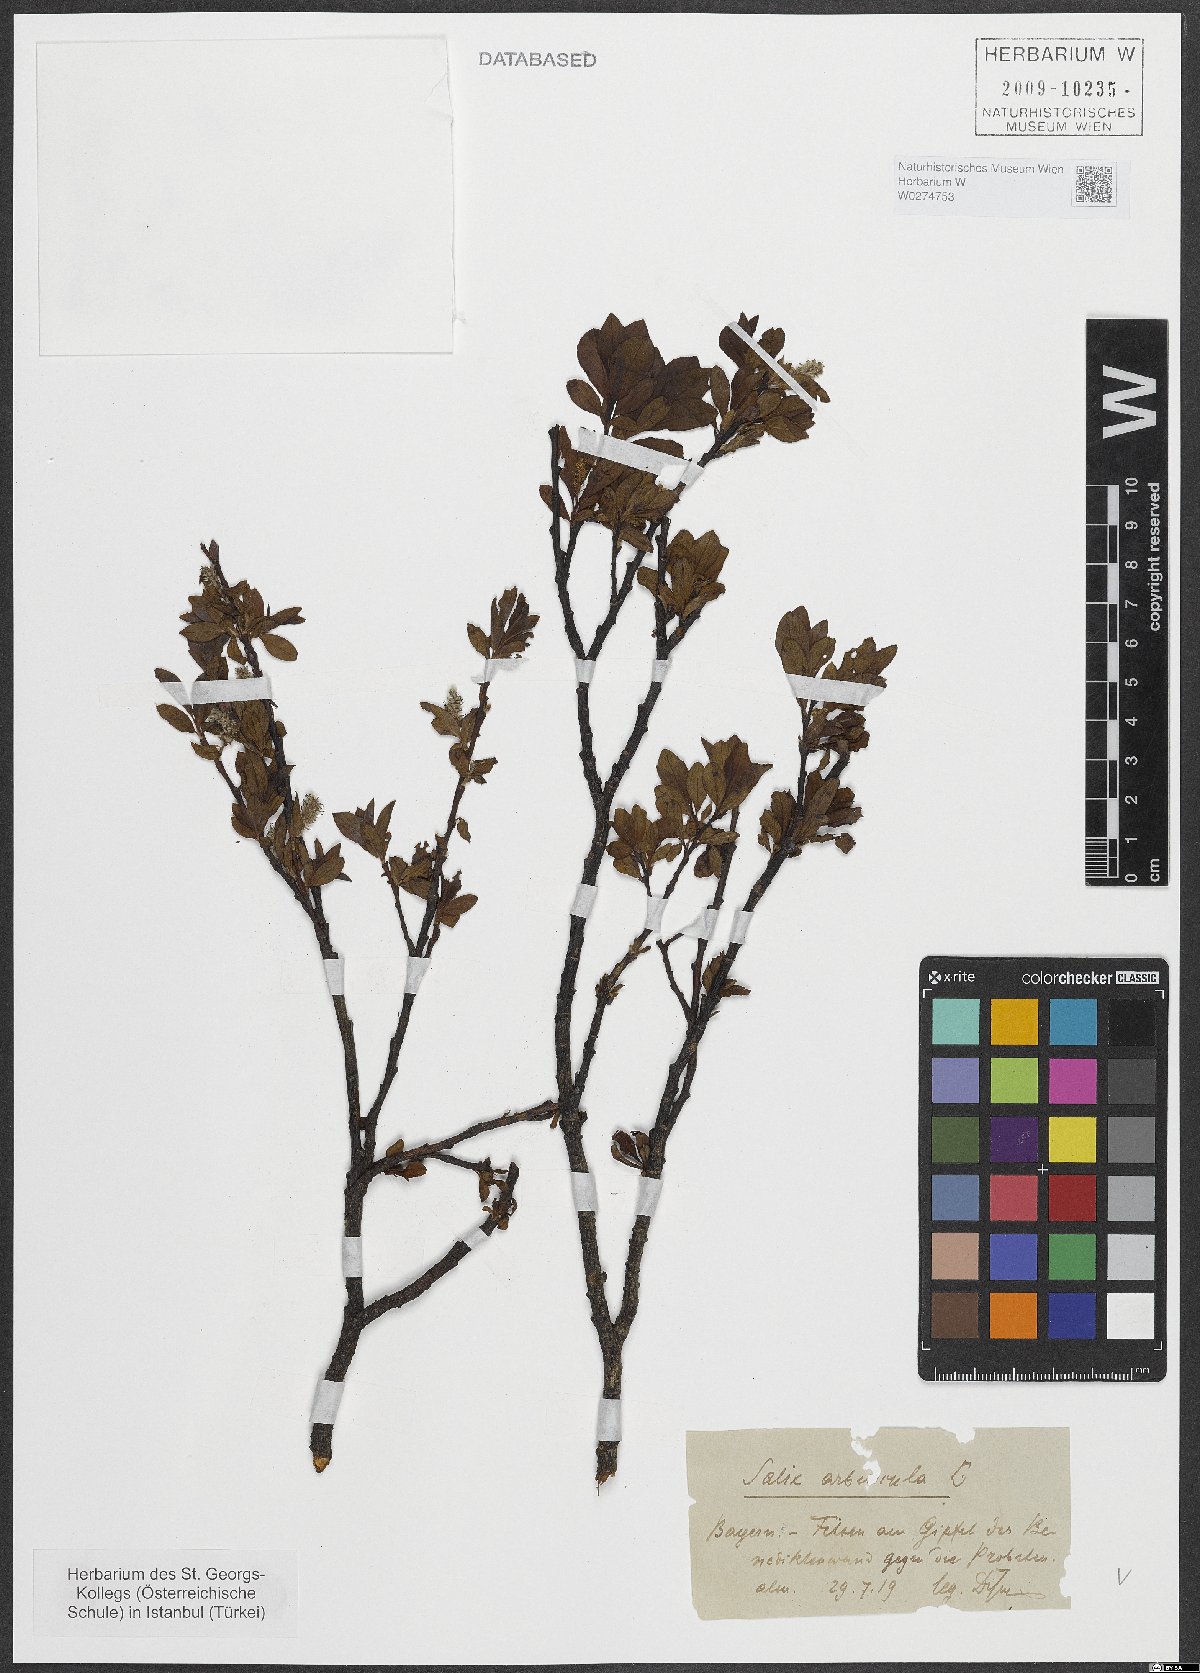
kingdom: Plantae
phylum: Tracheophyta
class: Magnoliopsida
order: Malpighiales
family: Salicaceae
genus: Salix
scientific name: Salix arbuscula
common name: Mountain willow
